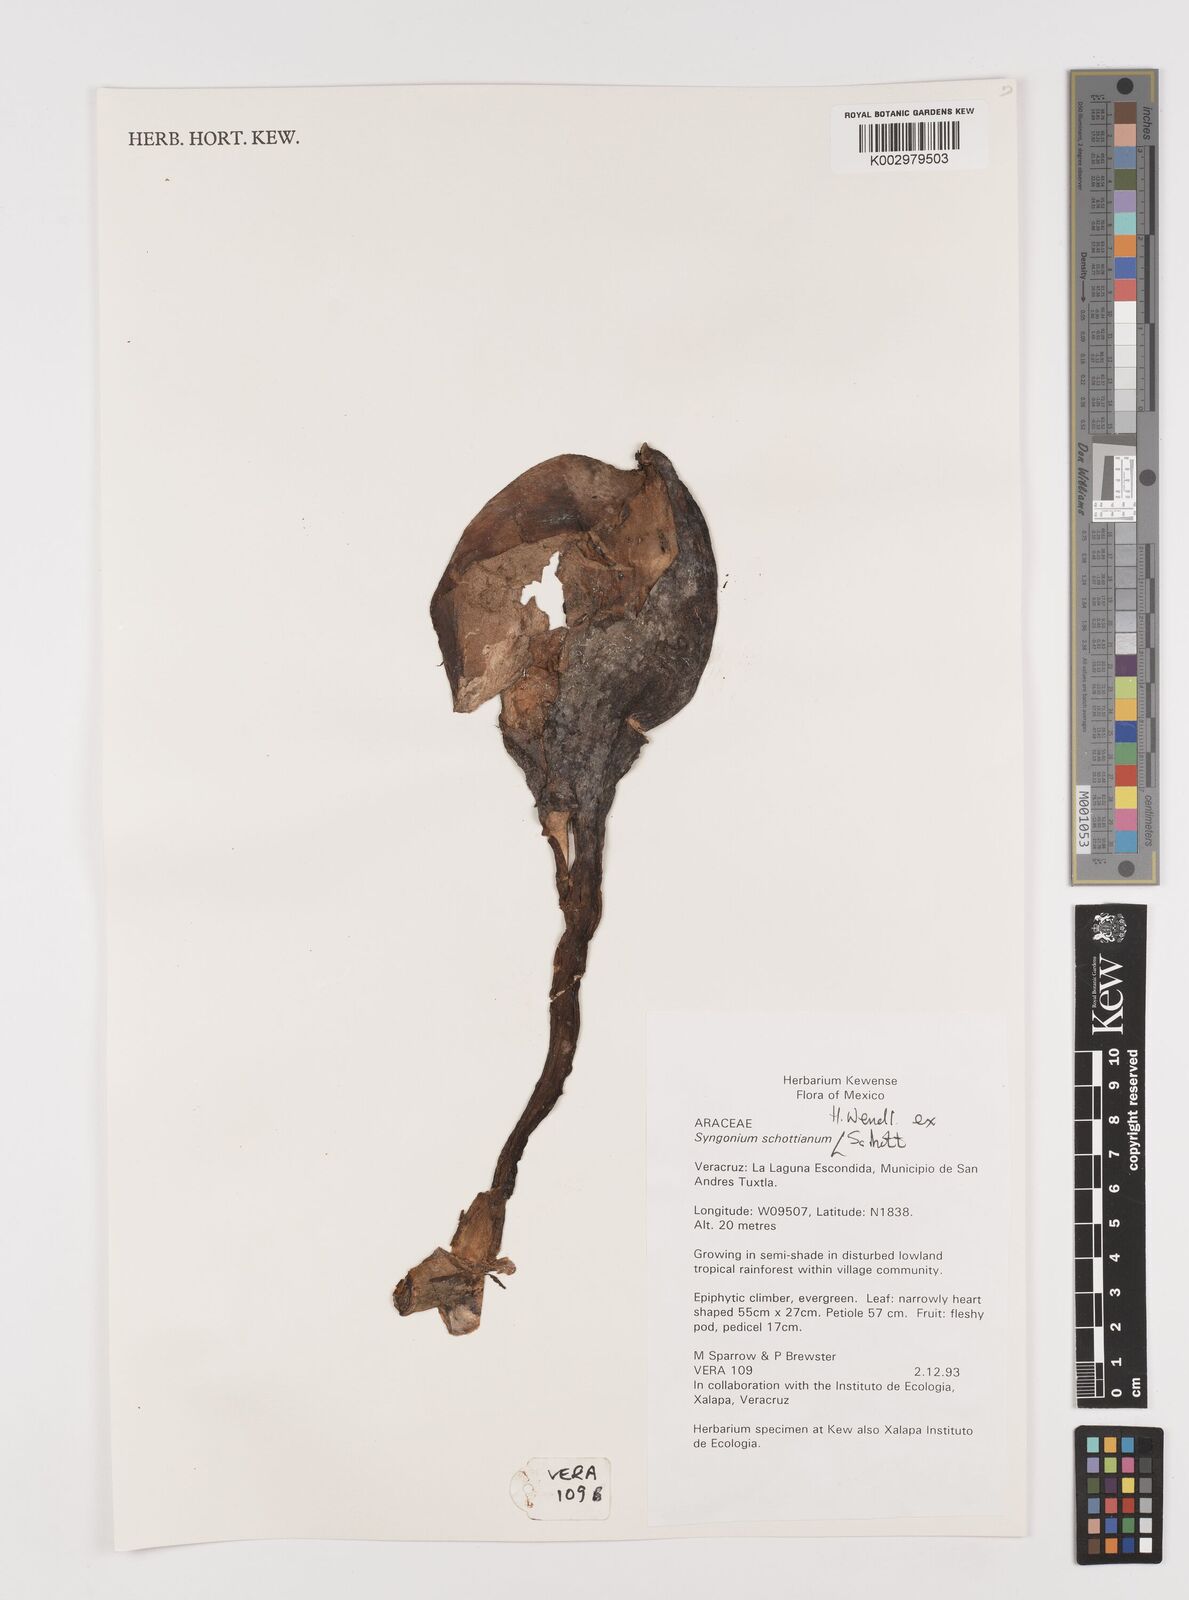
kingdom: Plantae
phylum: Tracheophyta
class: Liliopsida
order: Alismatales
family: Araceae
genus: Syngonium
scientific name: Syngonium schottianum
